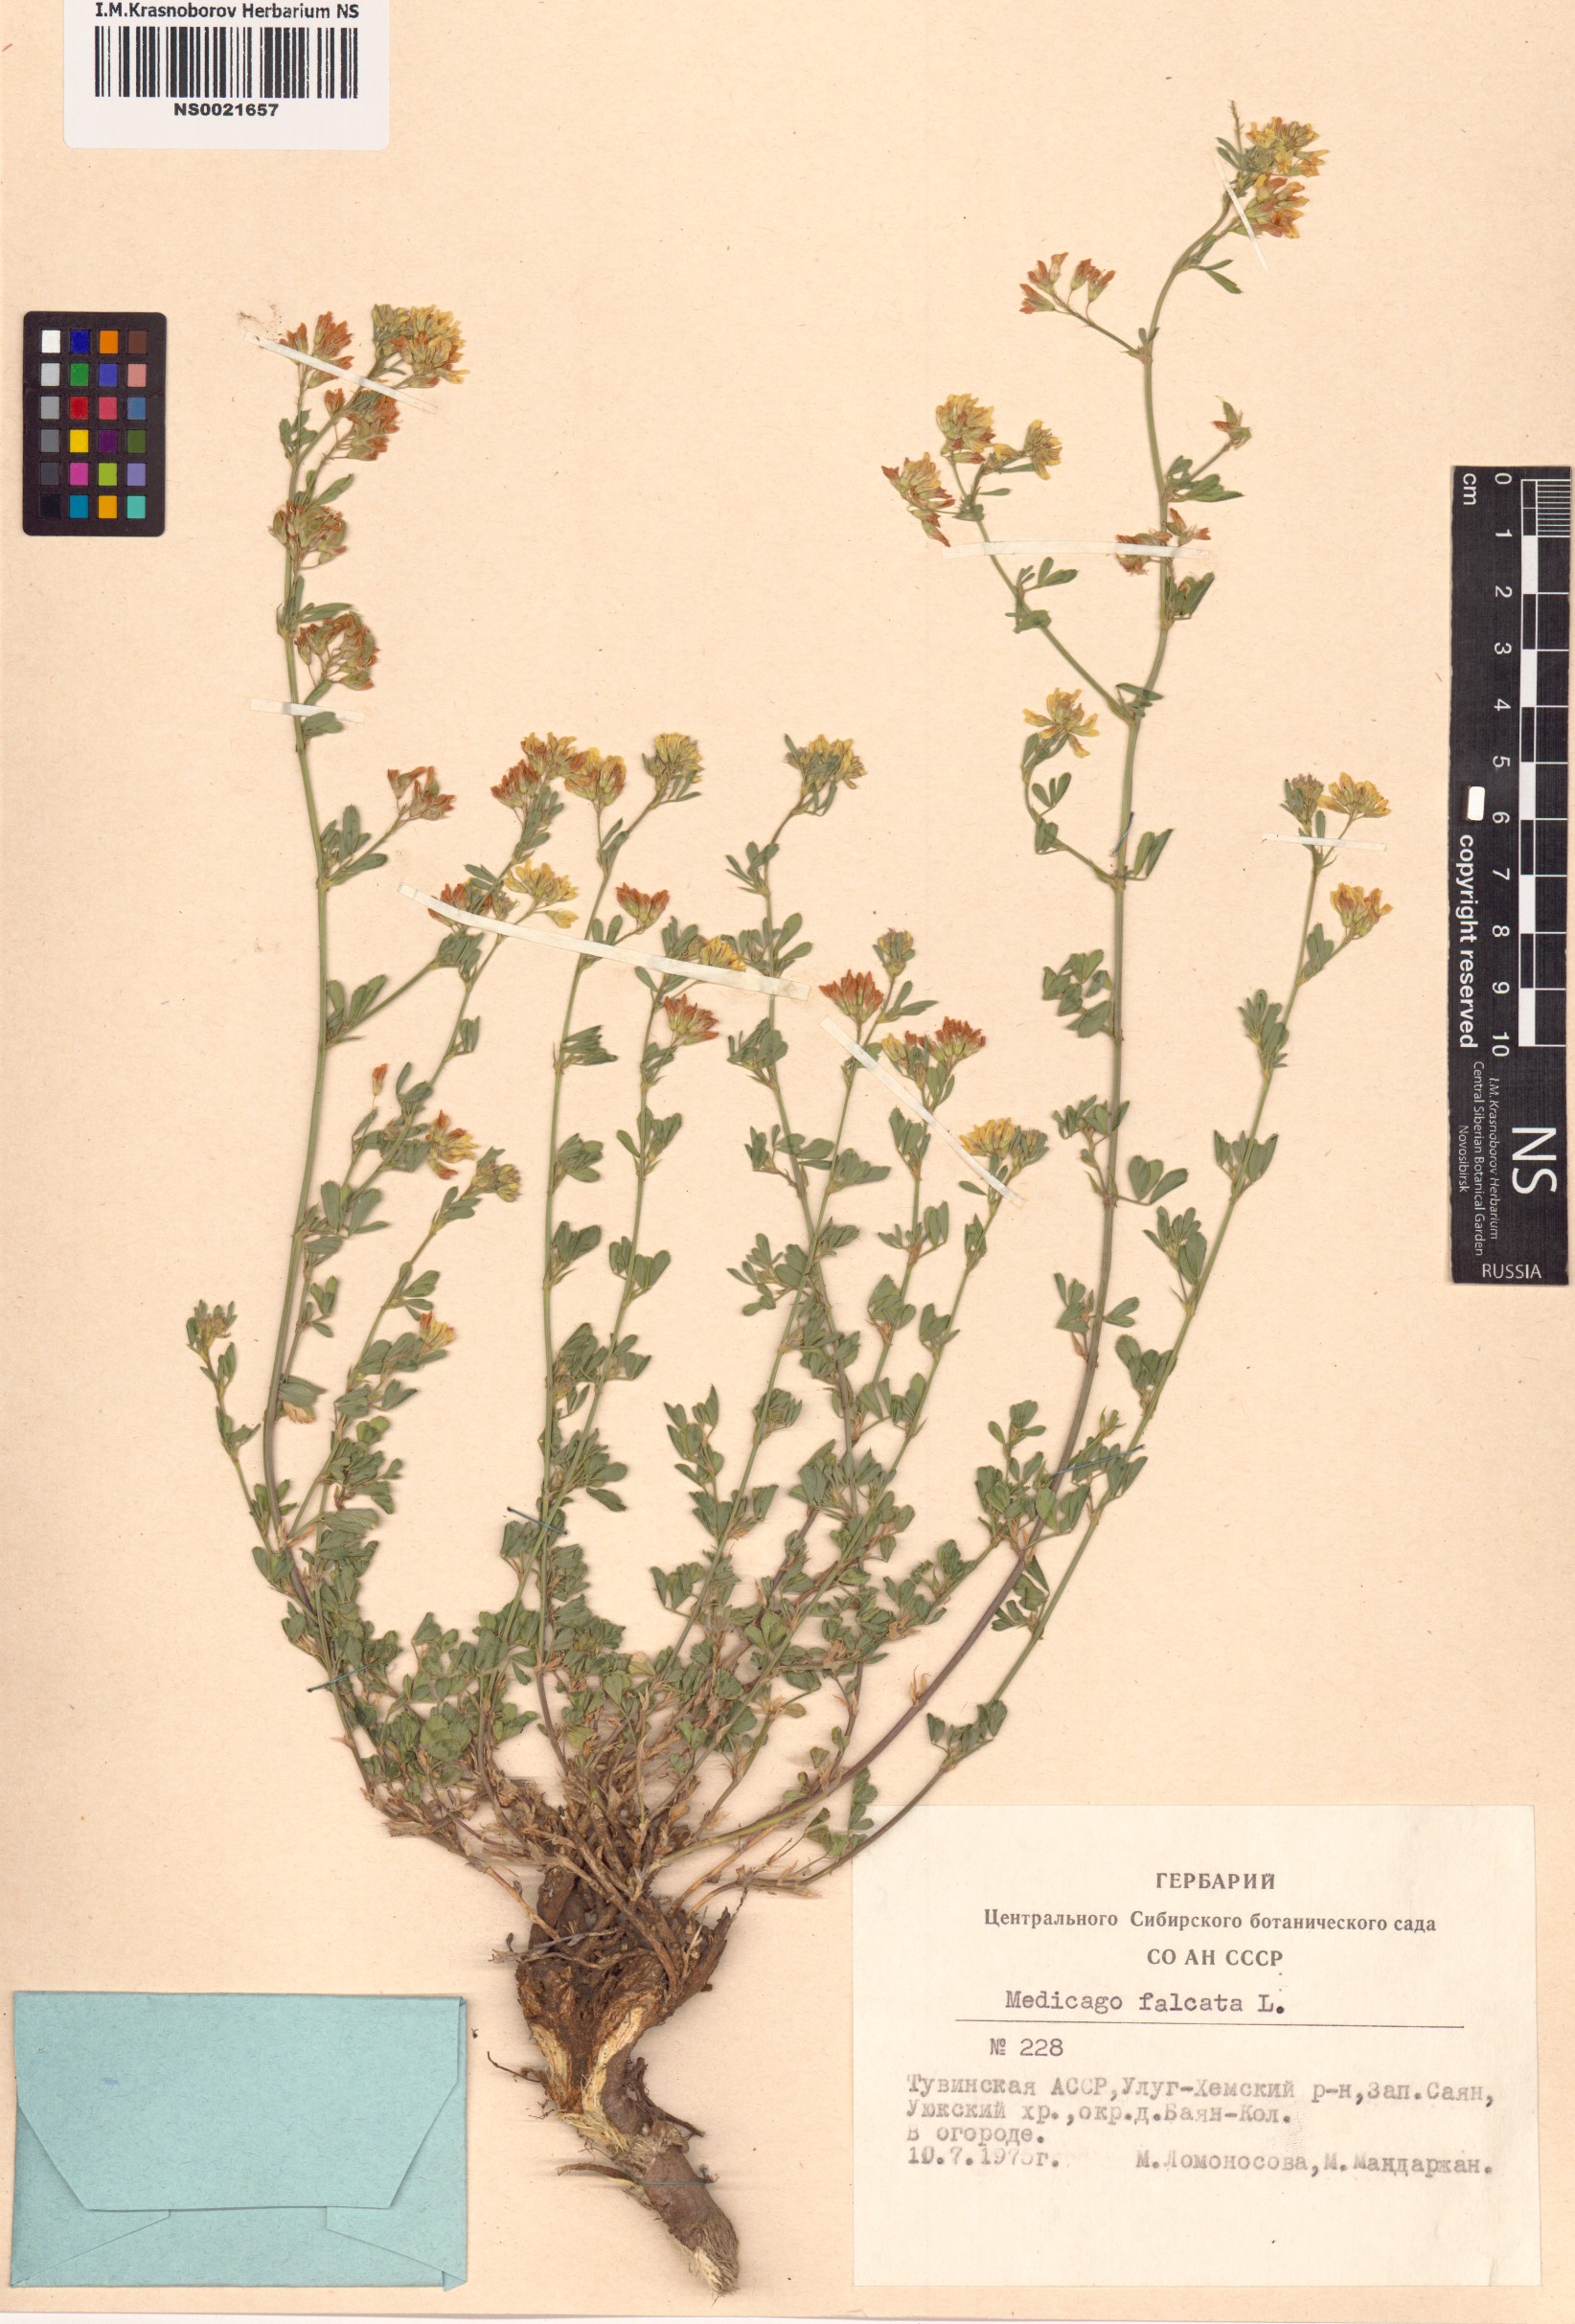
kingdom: Plantae
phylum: Tracheophyta
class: Magnoliopsida
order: Fabales
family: Fabaceae
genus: Medicago
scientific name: Medicago falcata
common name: Sickle medick
